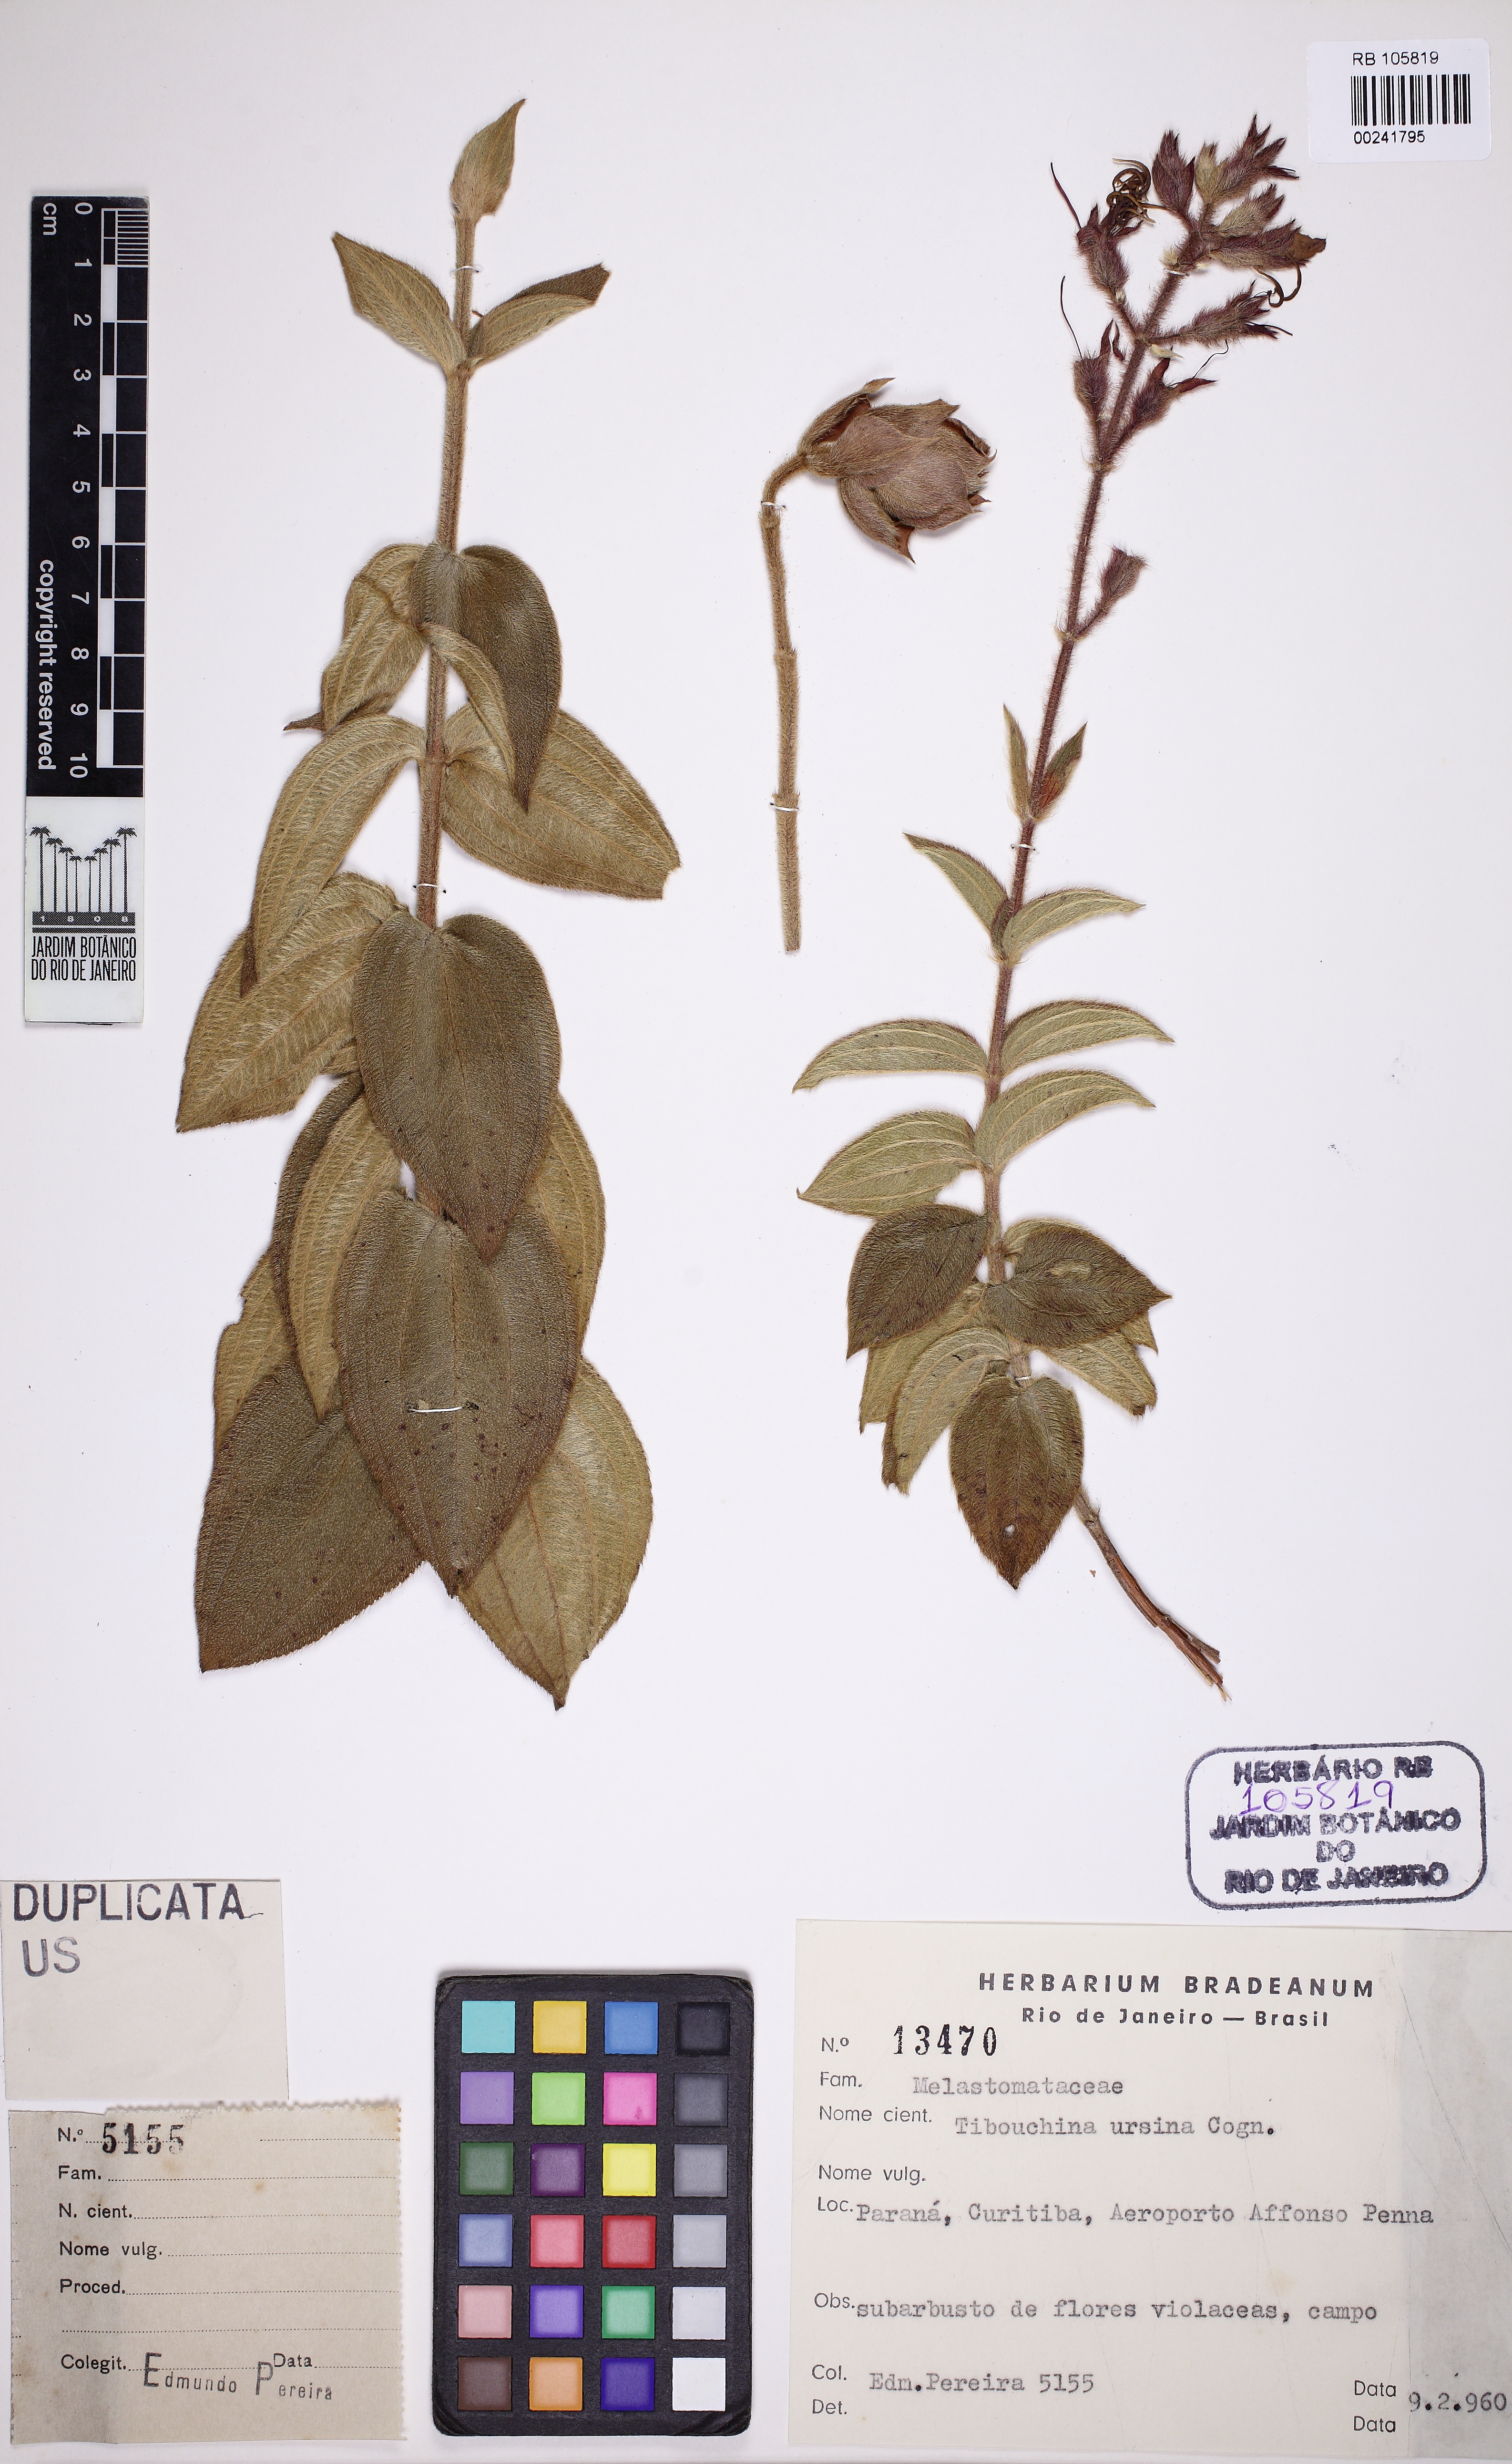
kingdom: Plantae
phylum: Tracheophyta
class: Magnoliopsida
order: Myrtales
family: Melastomataceae
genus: Pleroma
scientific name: Pleroma ursinum
